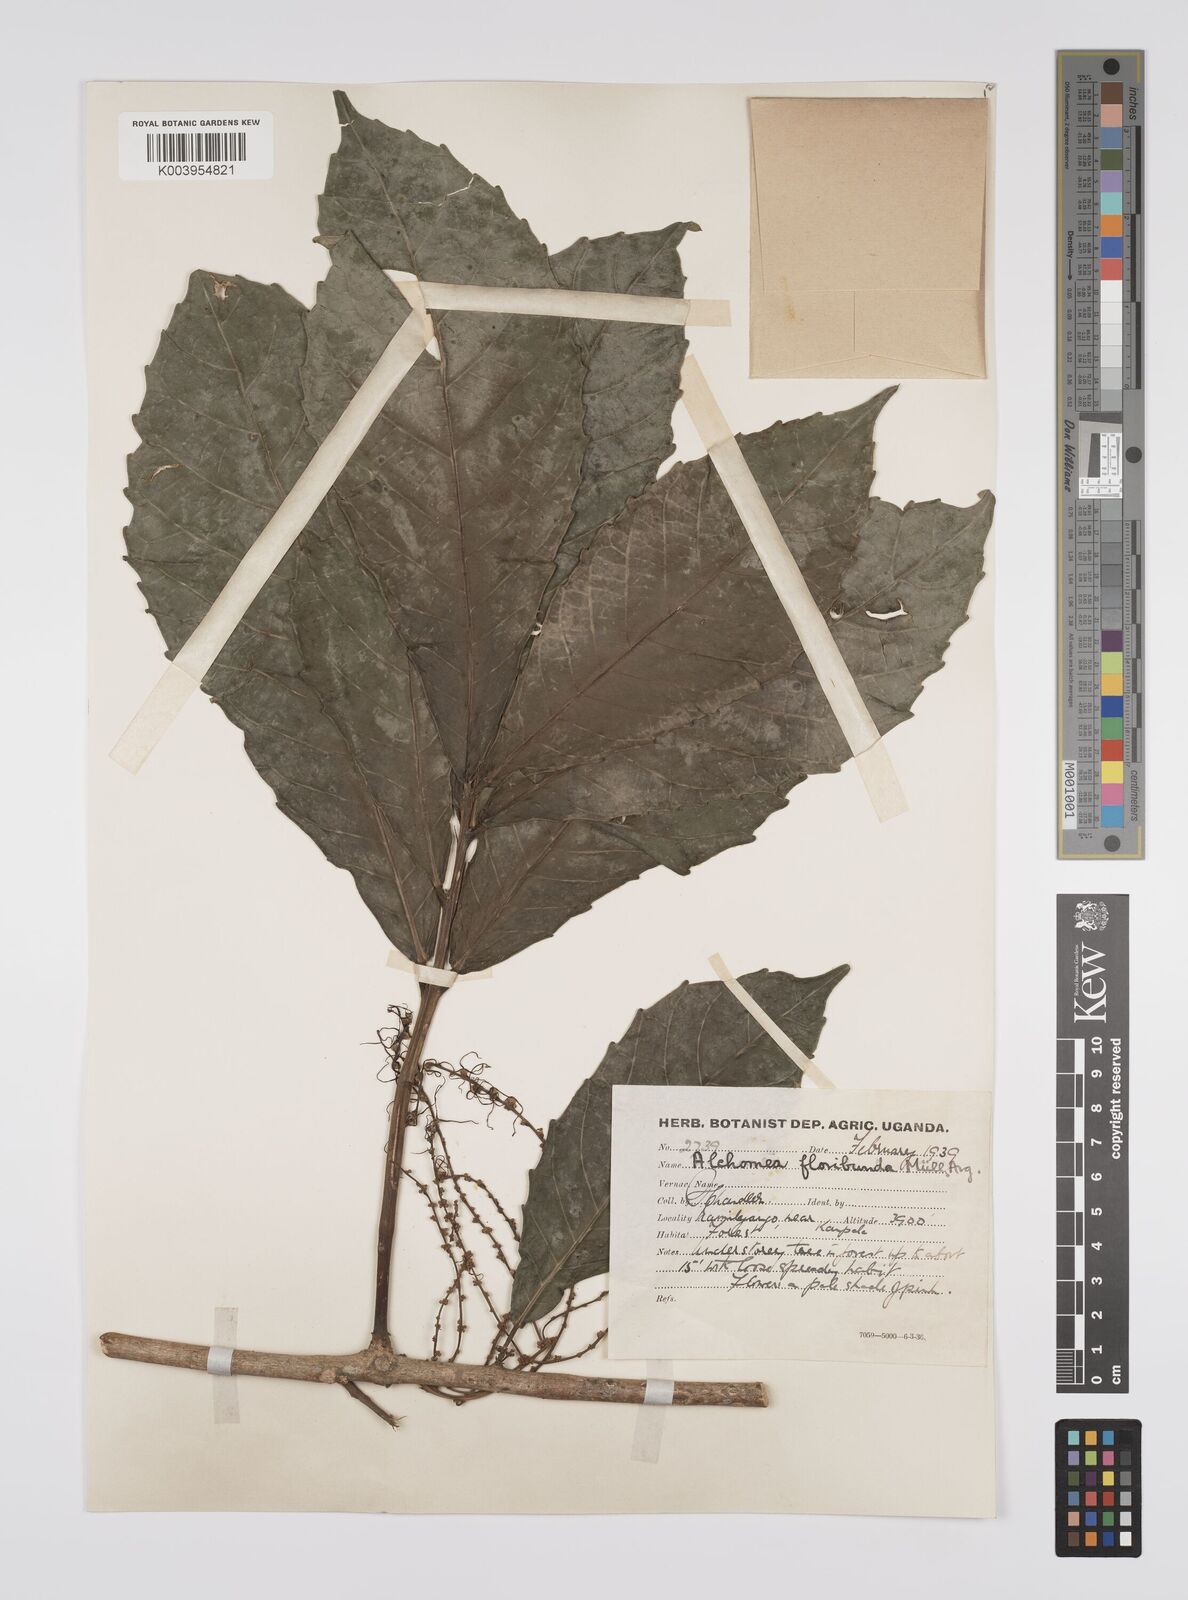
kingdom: Plantae
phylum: Tracheophyta
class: Magnoliopsida
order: Malpighiales
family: Euphorbiaceae
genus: Alchornea
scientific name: Alchornea floribunda
